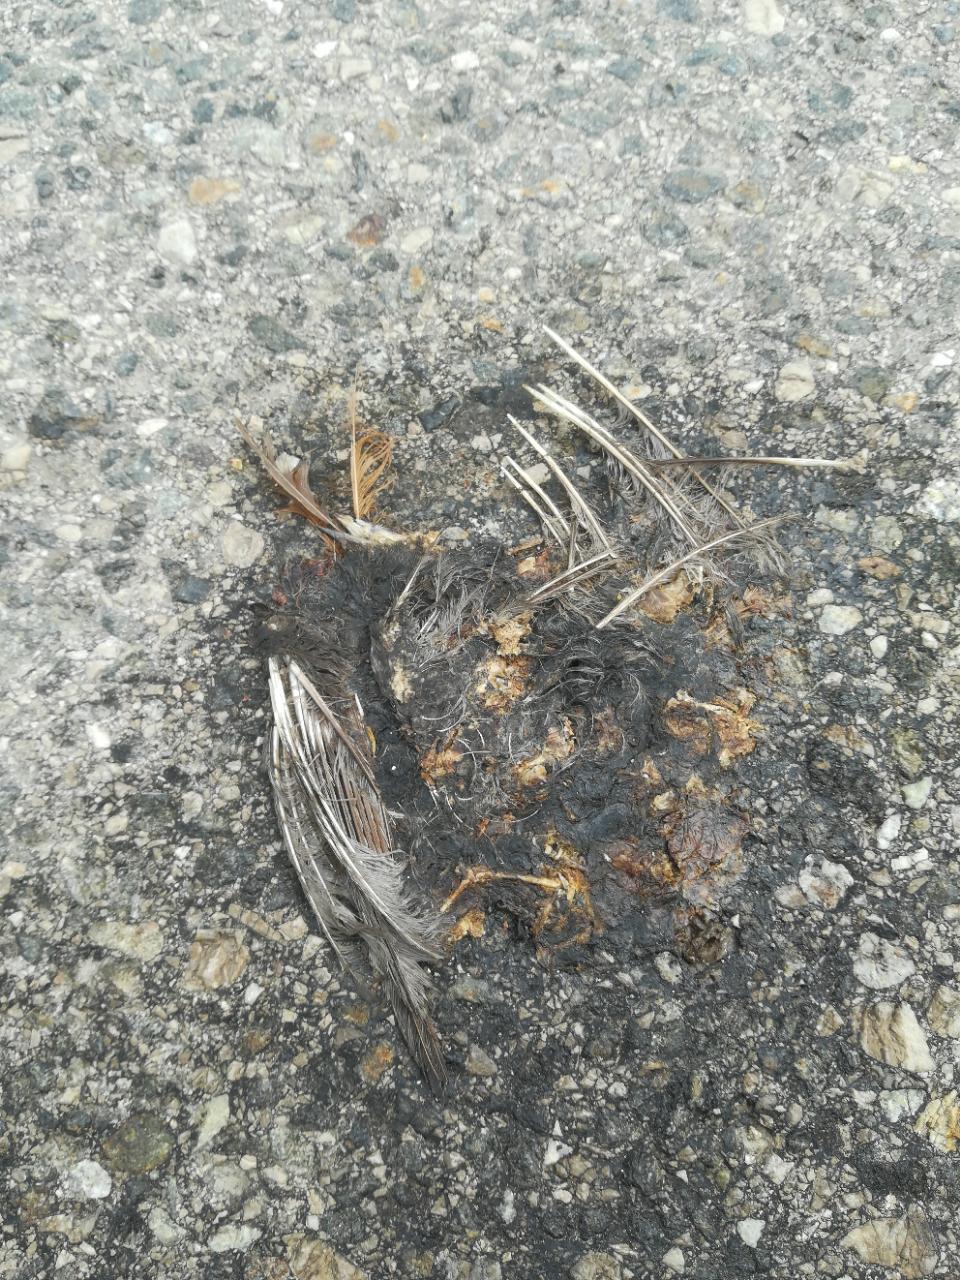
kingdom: Animalia
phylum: Chordata
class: Aves
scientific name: Aves
